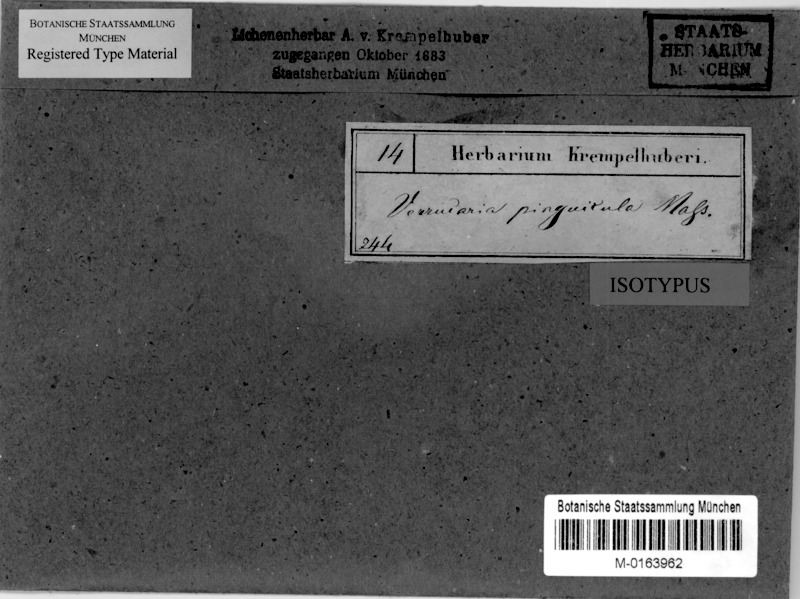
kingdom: Fungi
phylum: Ascomycota
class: Eurotiomycetes
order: Verrucariales
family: Verrucariaceae
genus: Verrucaria
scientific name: Verrucaria pinguicula
